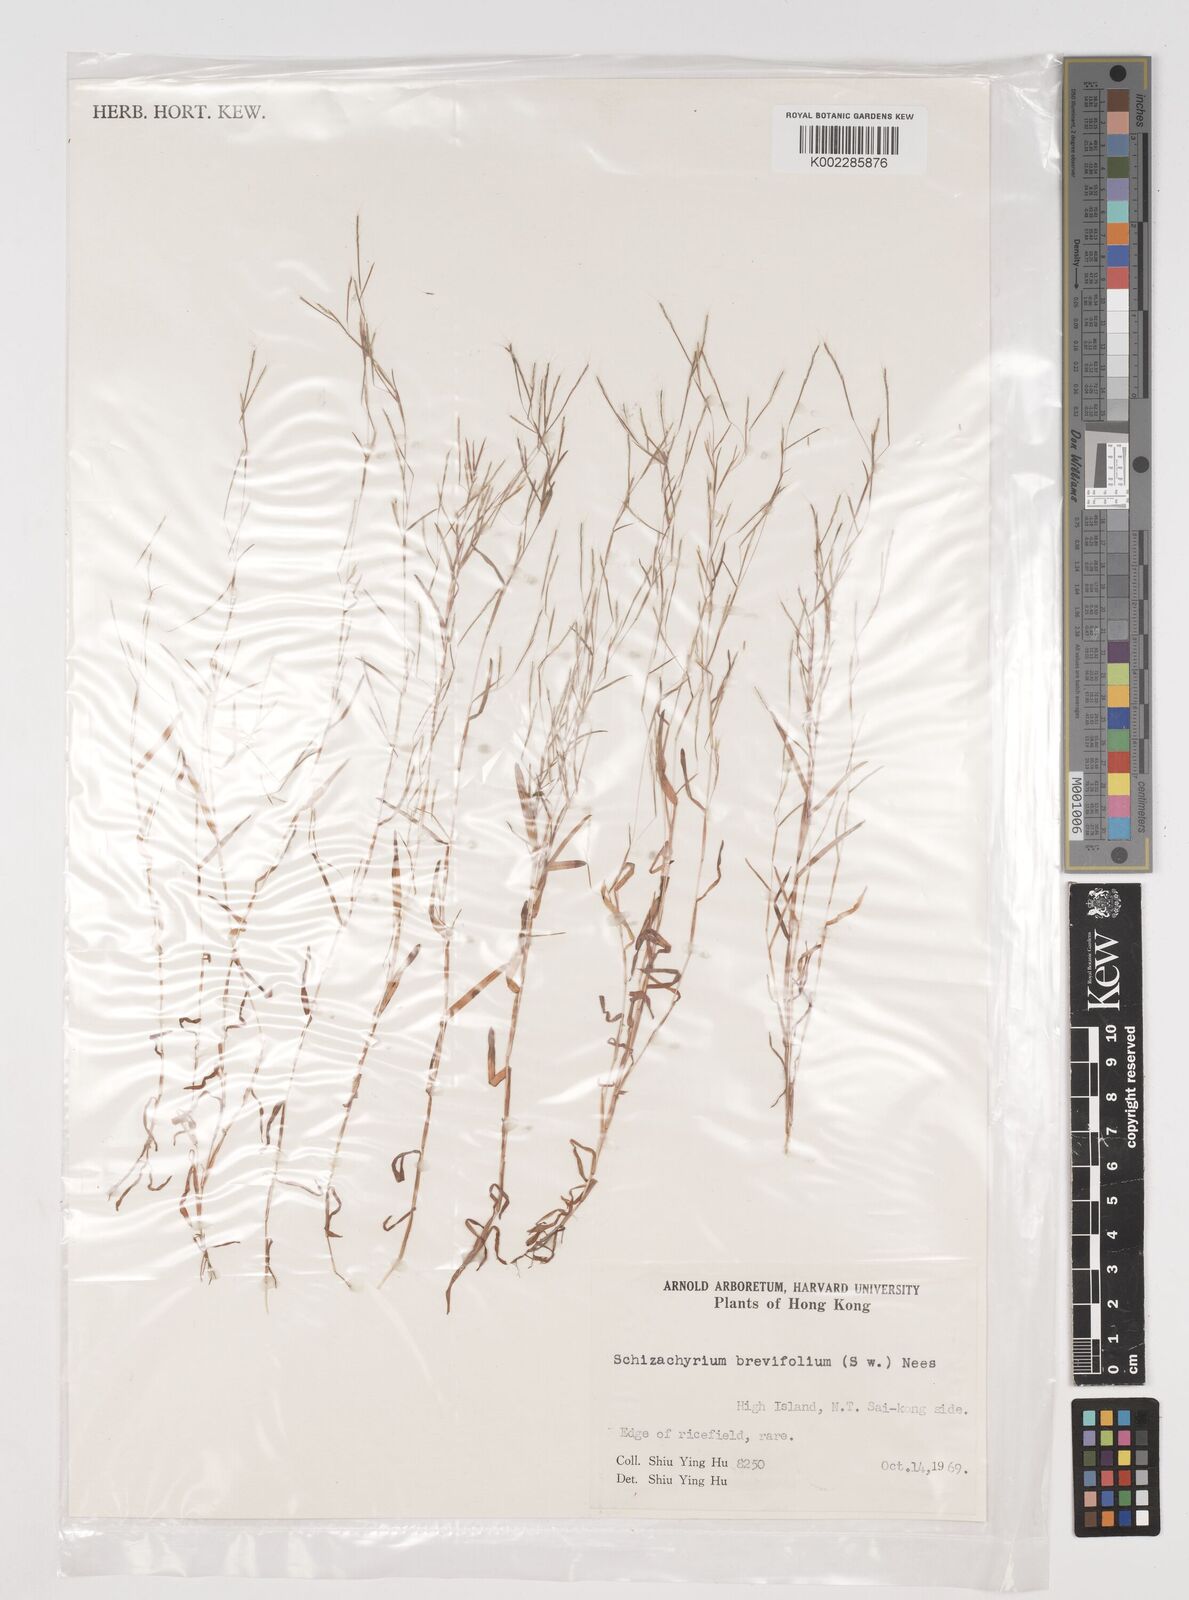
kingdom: Plantae
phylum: Tracheophyta
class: Liliopsida
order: Poales
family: Poaceae
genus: Schizachyrium
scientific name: Schizachyrium brevifolium
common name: Serillo dulce
